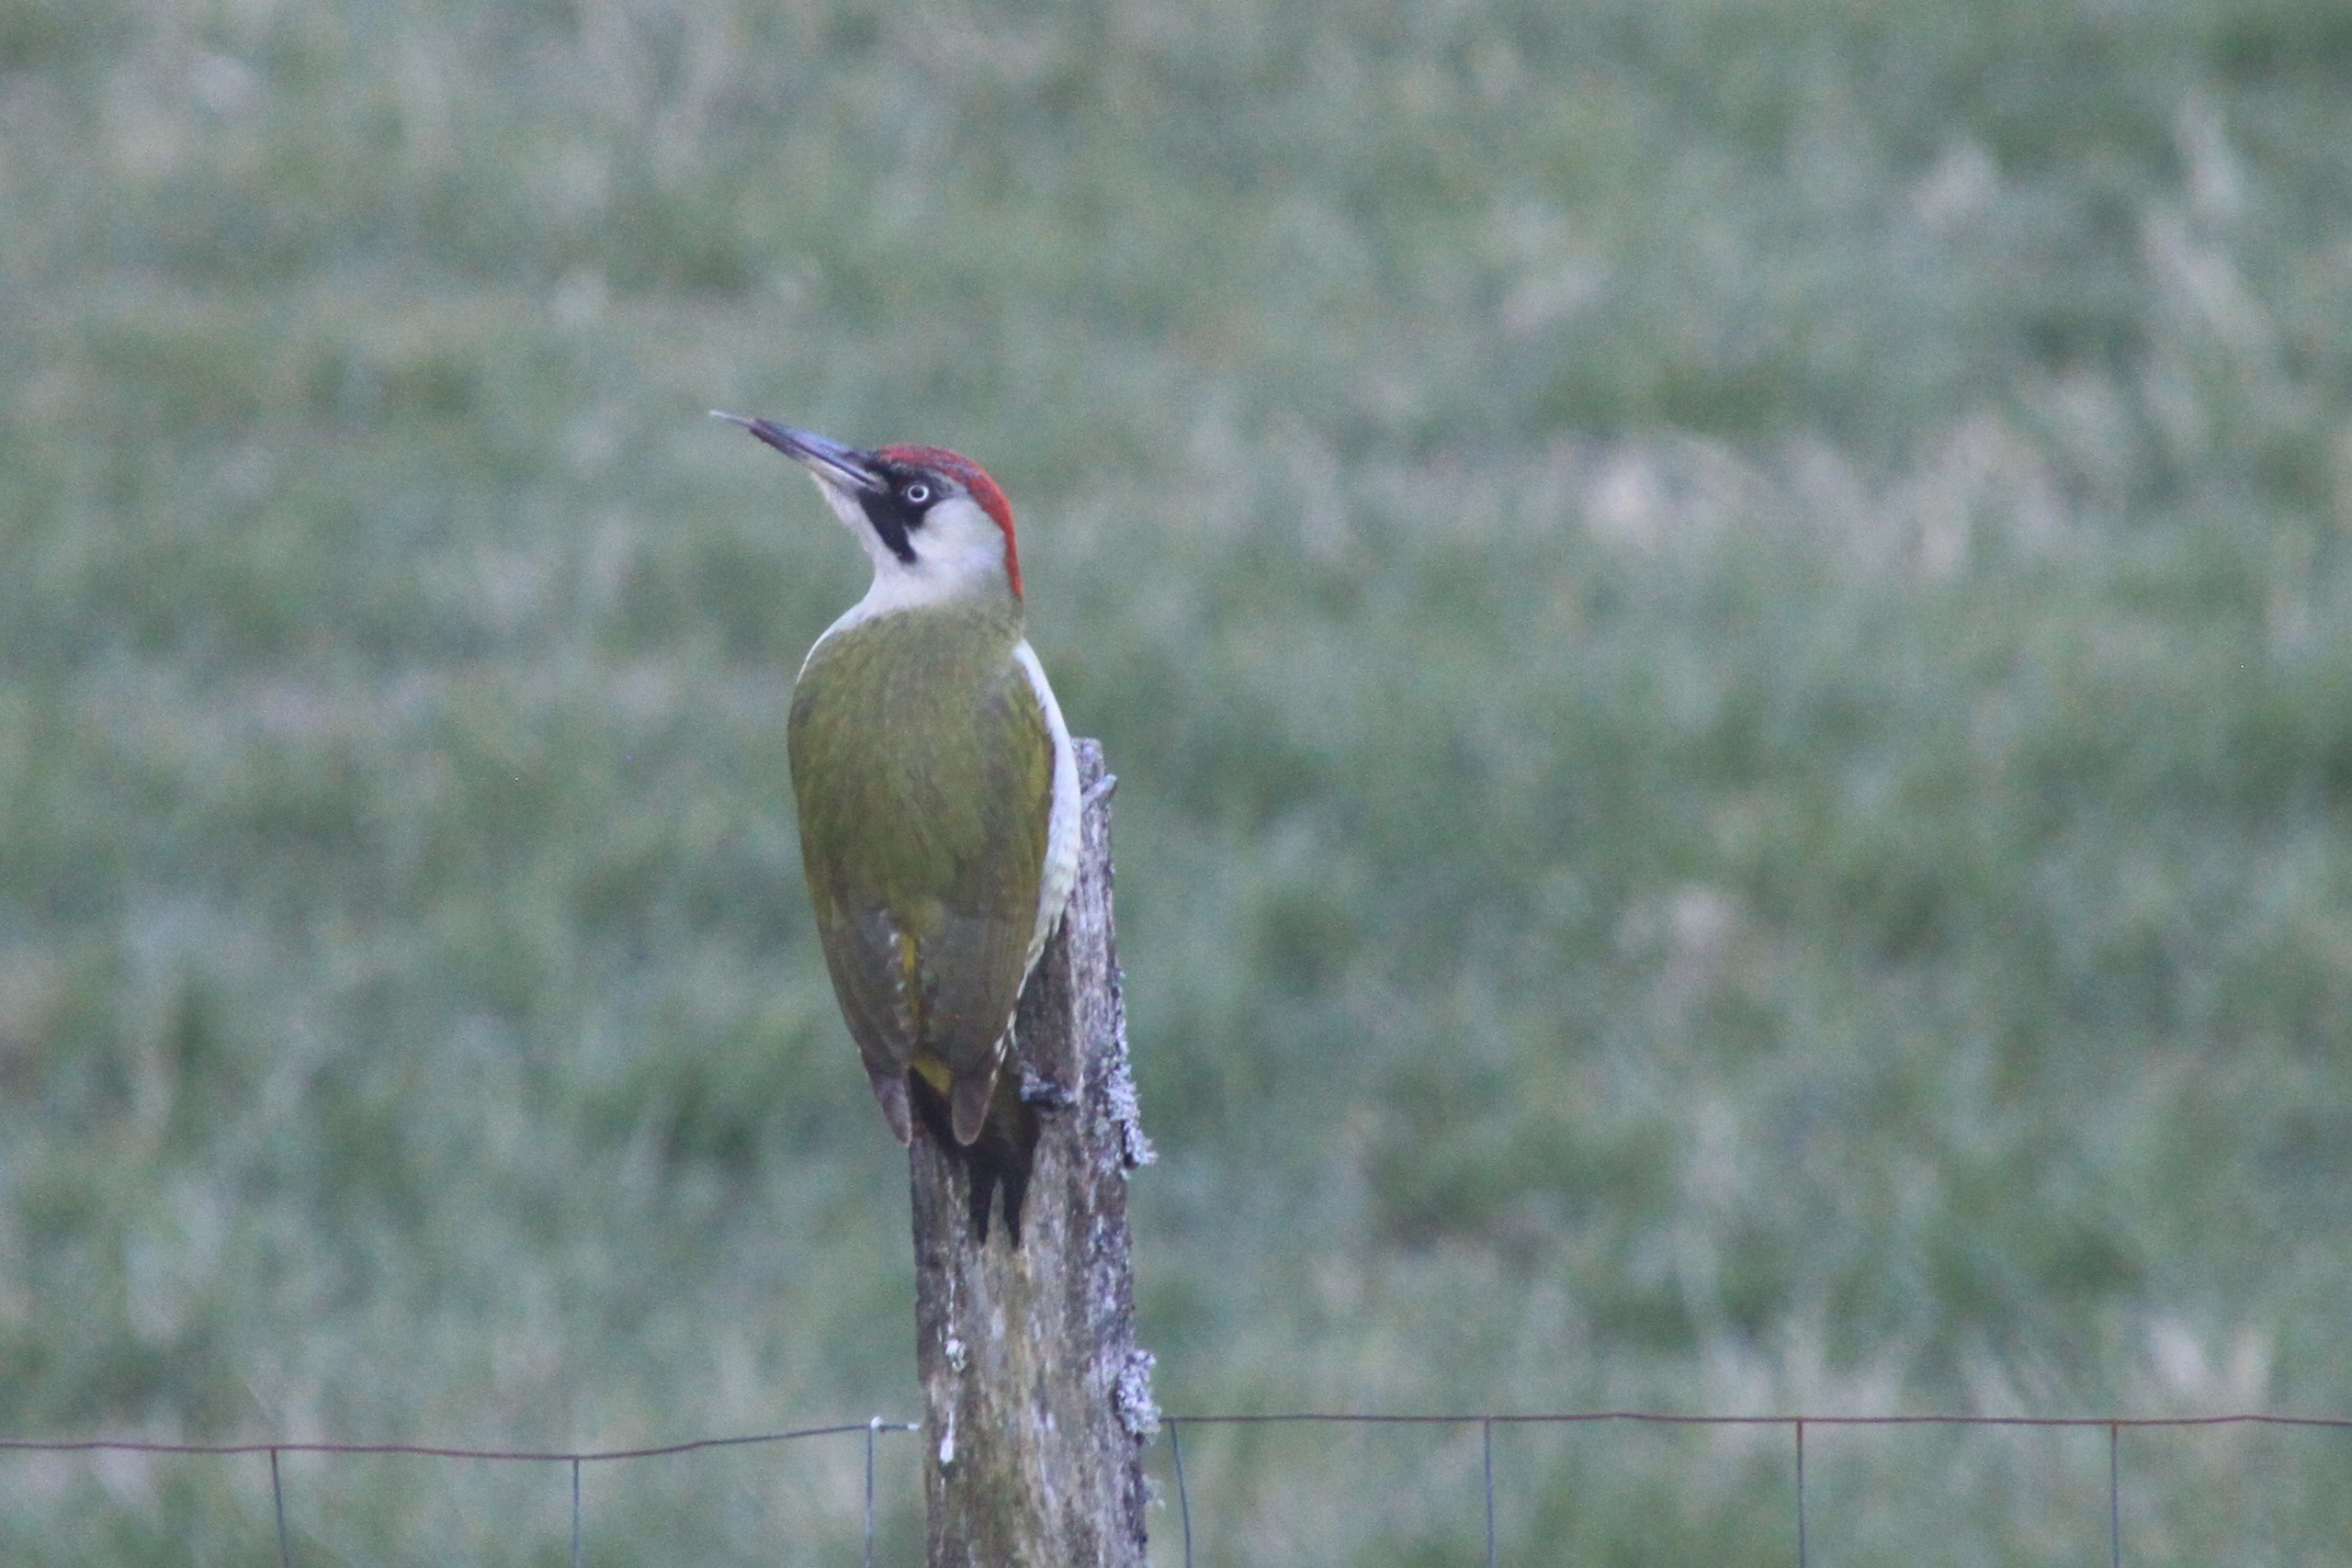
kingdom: Animalia
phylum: Chordata
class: Aves
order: Piciformes
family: Picidae
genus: Picus
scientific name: Picus viridis
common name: Grønspætte
